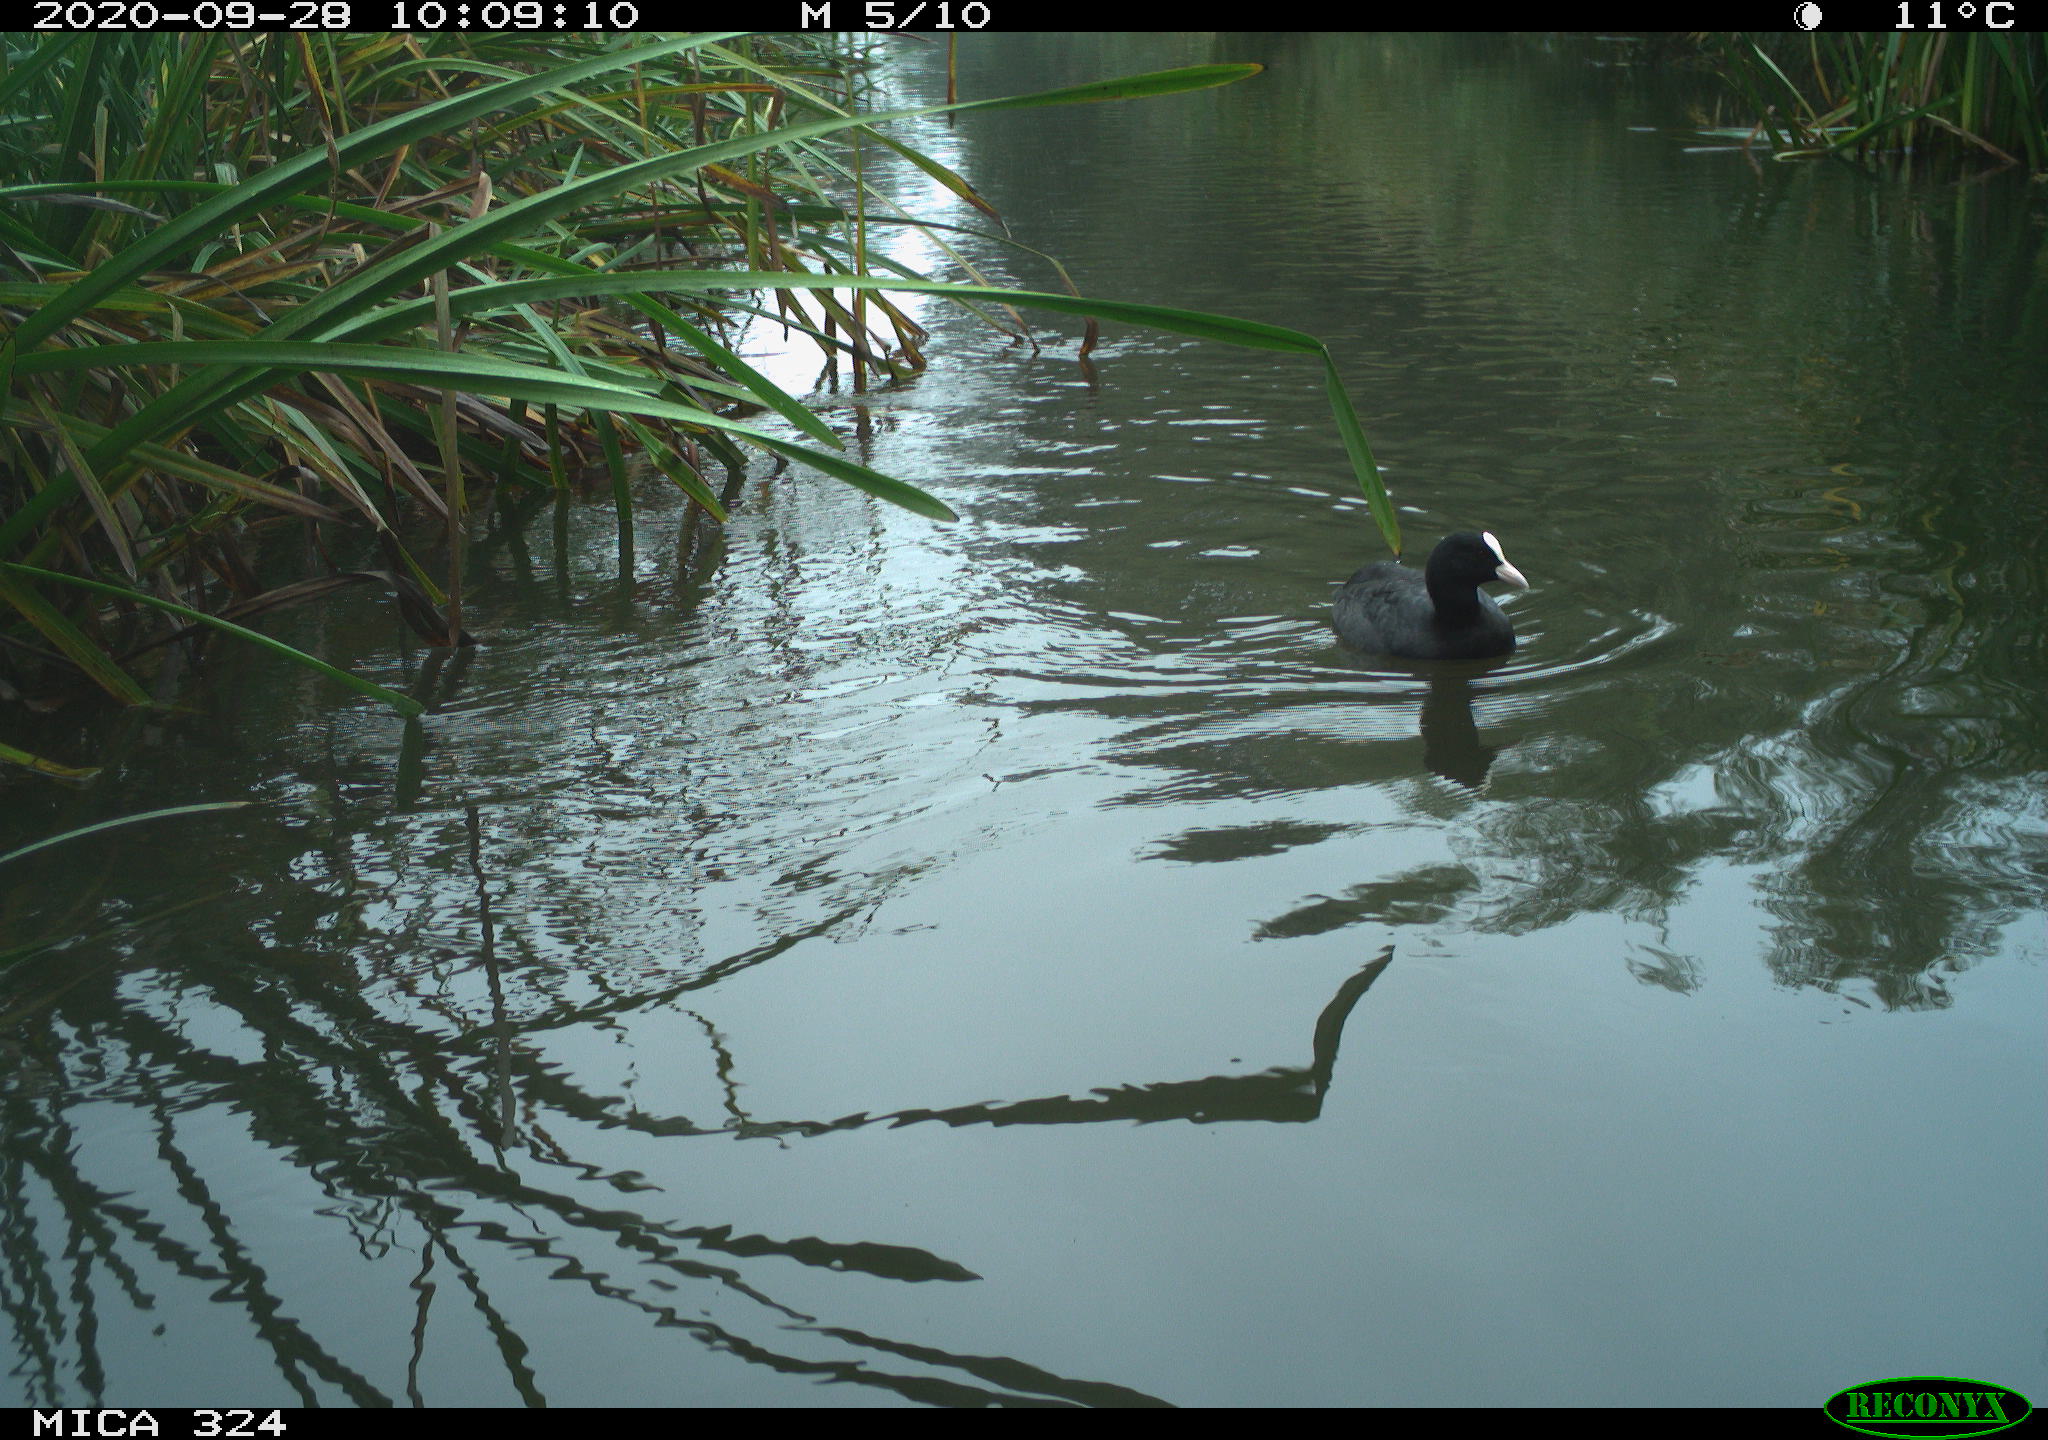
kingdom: Animalia
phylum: Chordata
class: Aves
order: Gruiformes
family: Rallidae
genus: Fulica
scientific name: Fulica atra
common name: Eurasian coot
